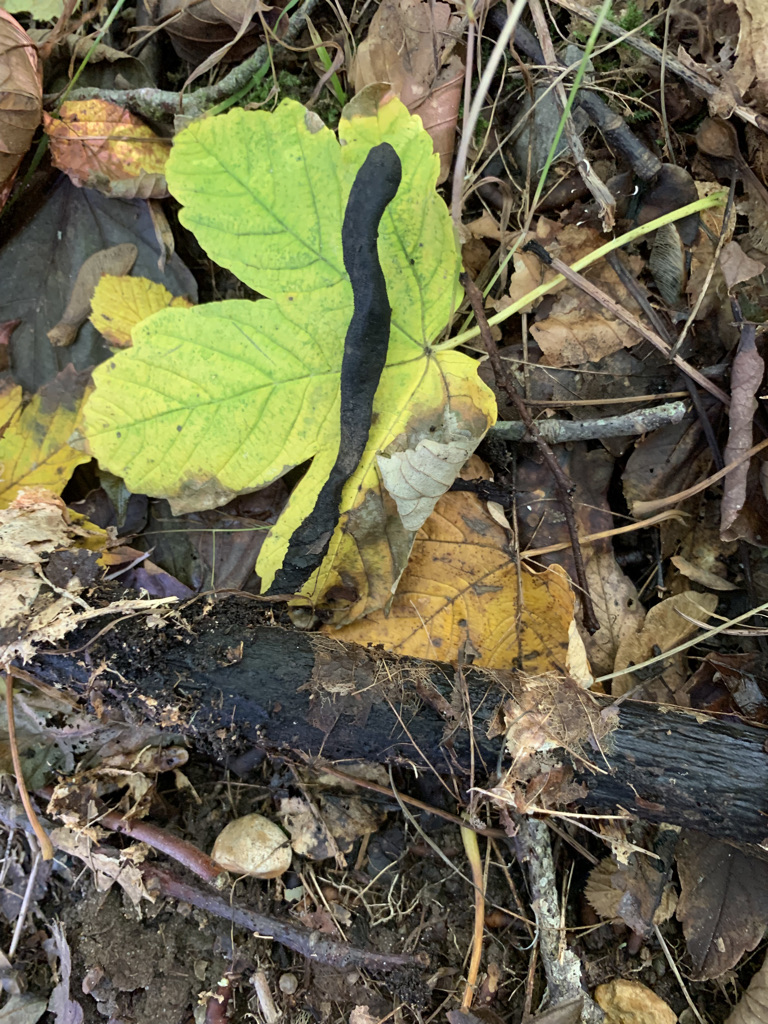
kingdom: Fungi
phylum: Ascomycota
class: Sordariomycetes
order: Xylariales
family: Xylariaceae
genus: Xylaria
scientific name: Xylaria longipes
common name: slank stødsvamp
